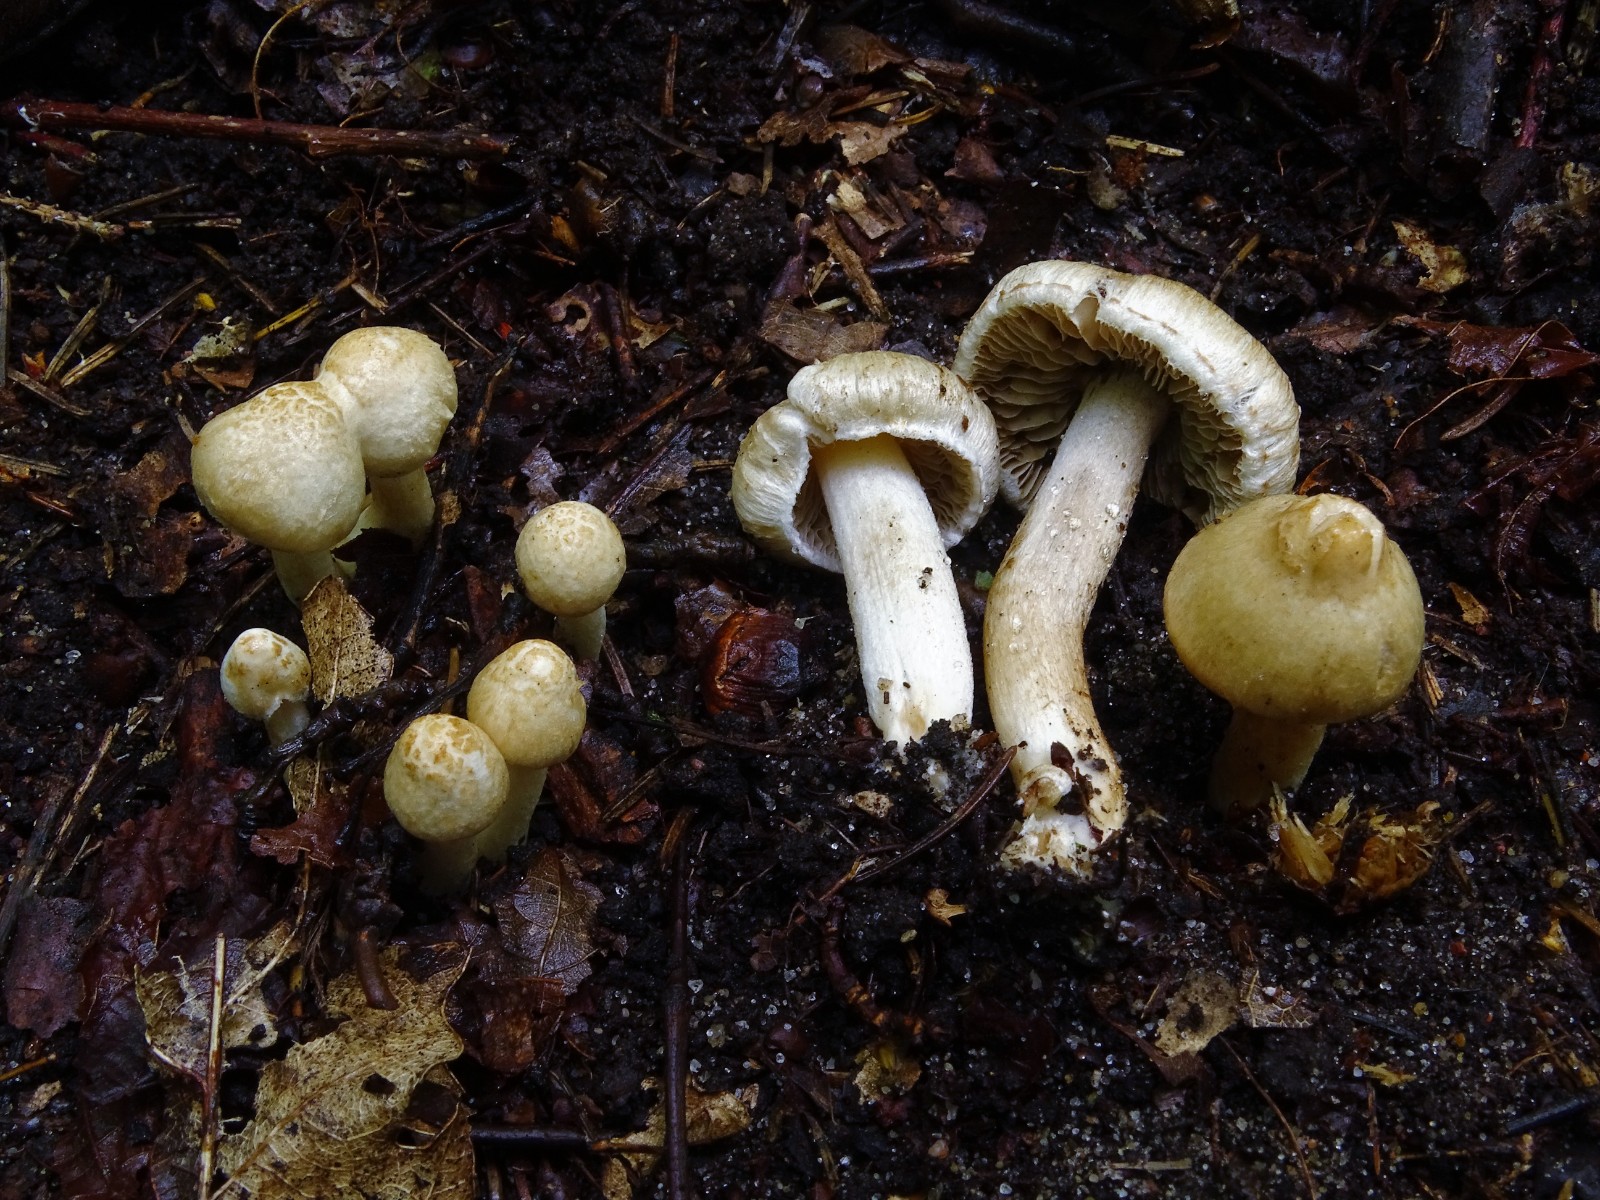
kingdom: Fungi
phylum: Basidiomycota
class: Agaricomycetes
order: Agaricales
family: Inocybaceae
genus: Inocybe
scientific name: Inocybe appendiculata
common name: tandet trævlhat
